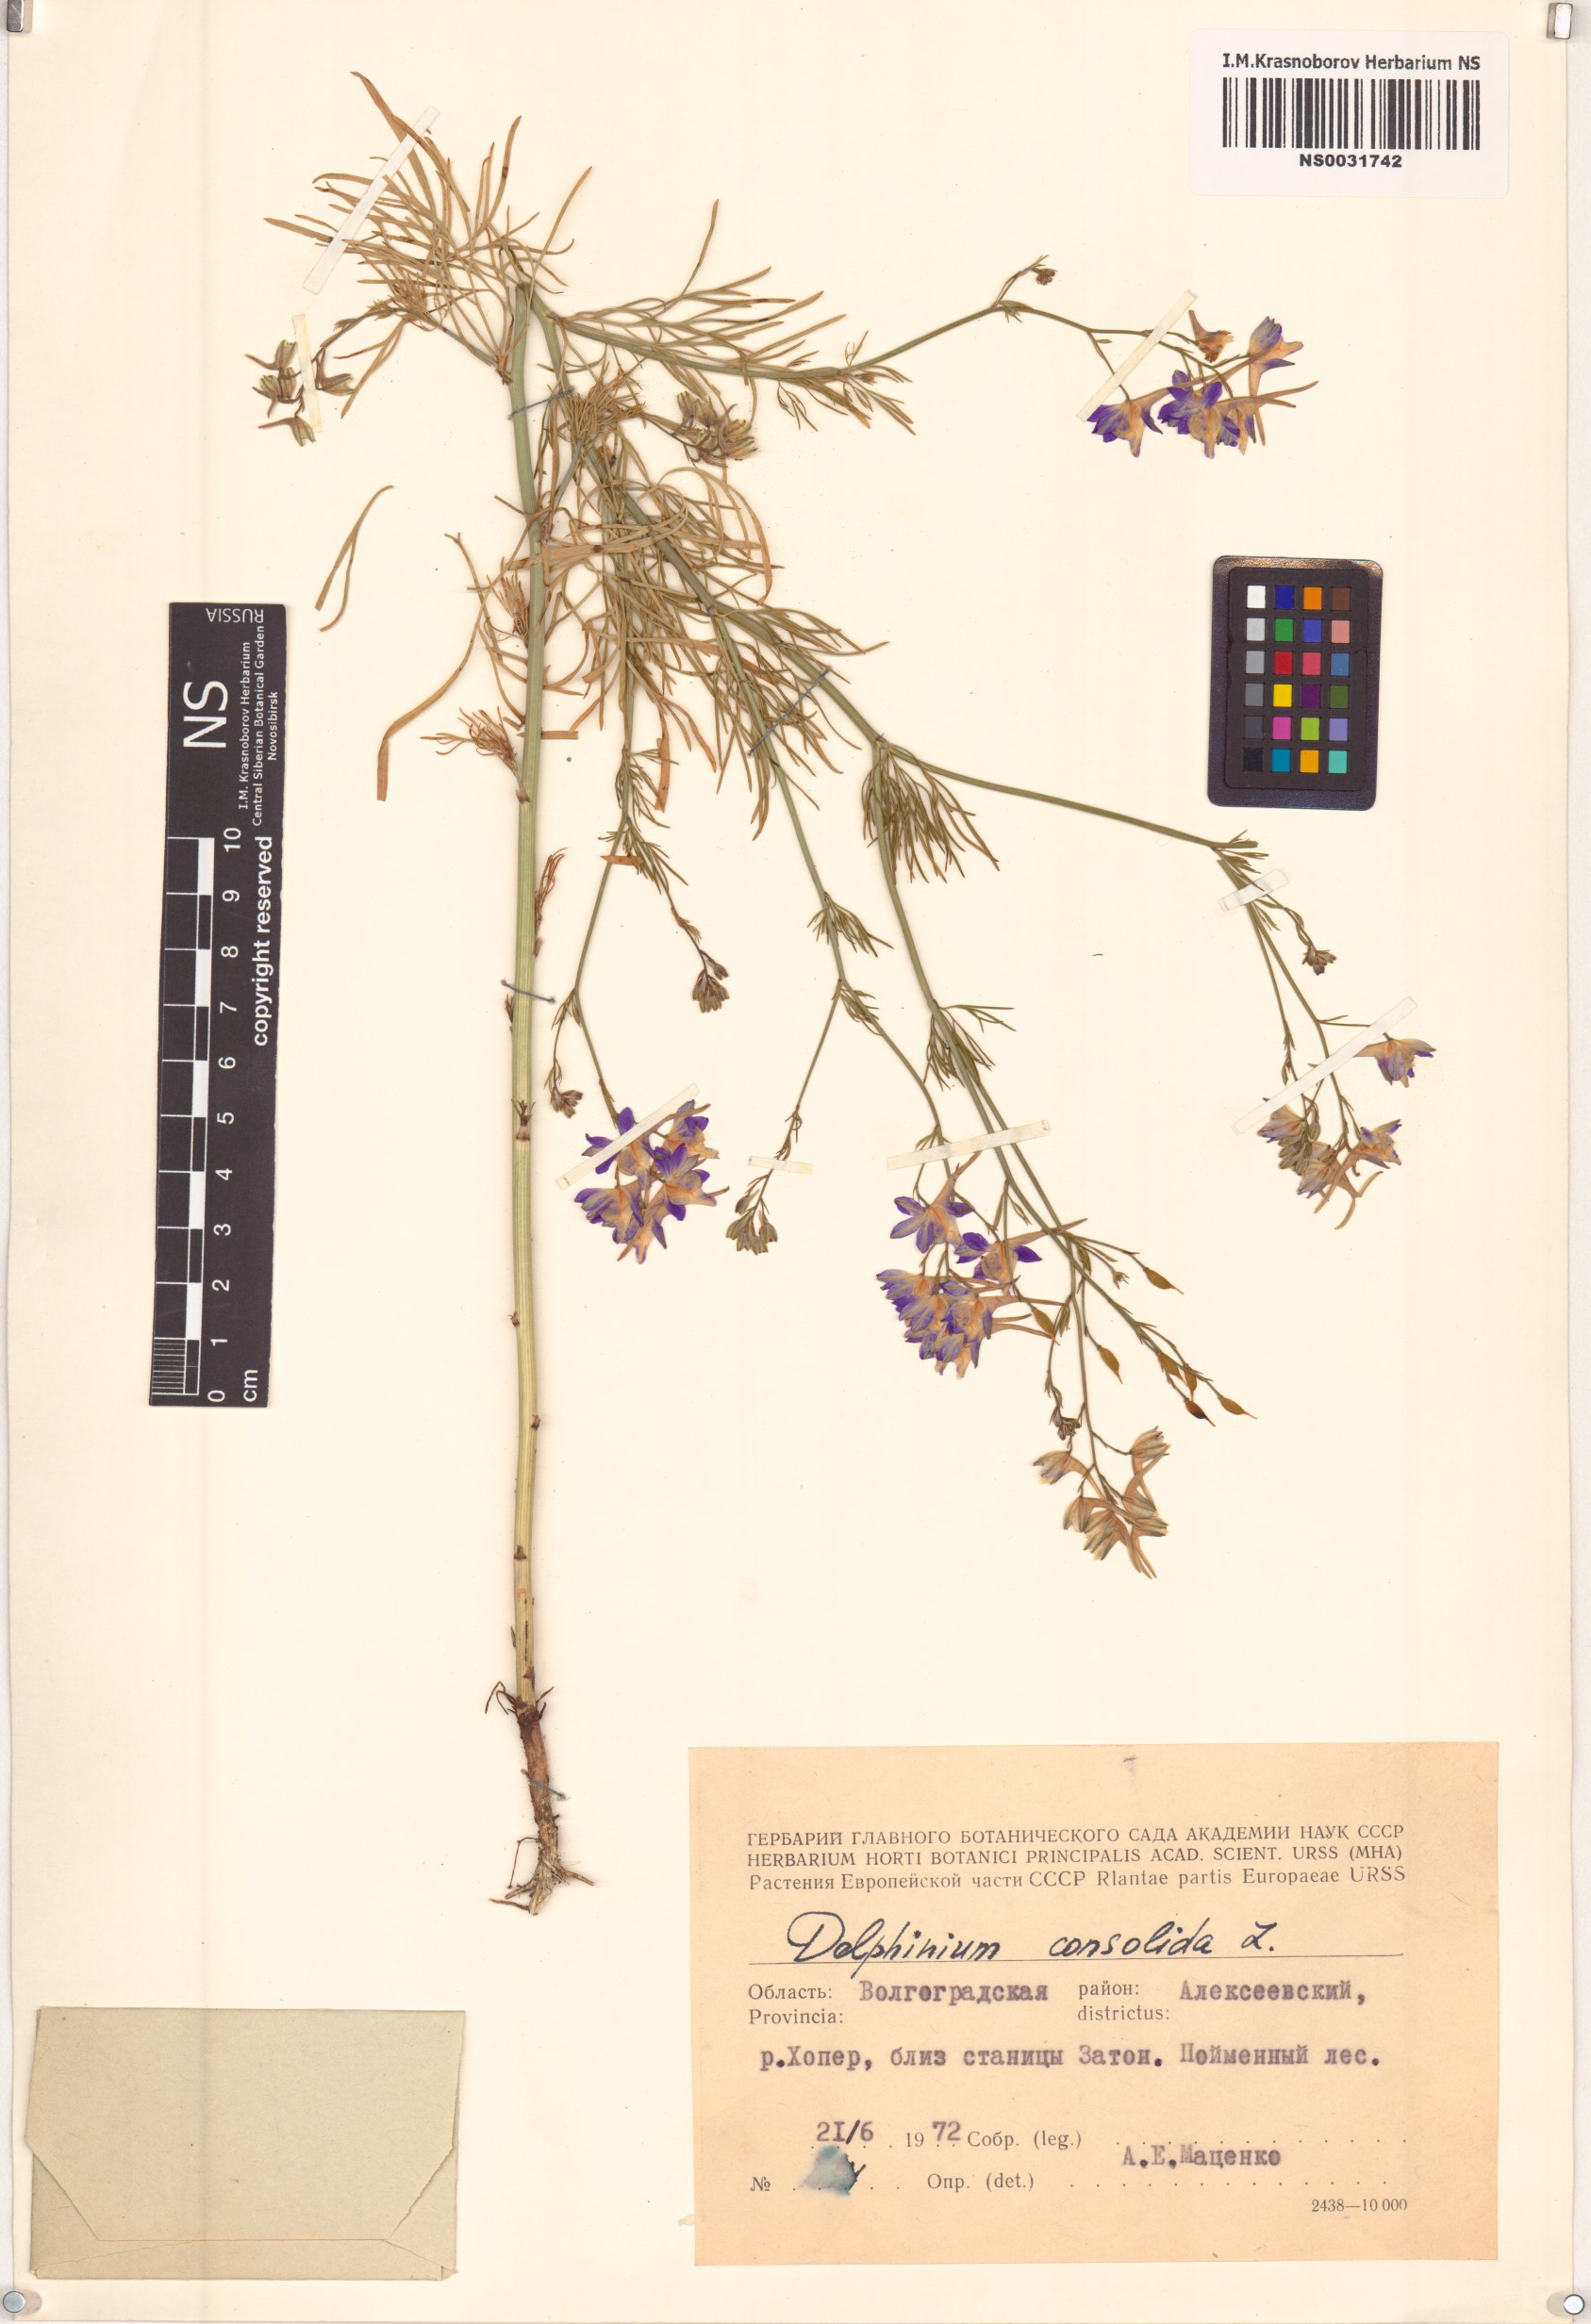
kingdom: Plantae
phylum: Tracheophyta
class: Magnoliopsida
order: Ranunculales
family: Ranunculaceae
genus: Delphinium
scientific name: Delphinium consolida
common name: Branching larkspur
